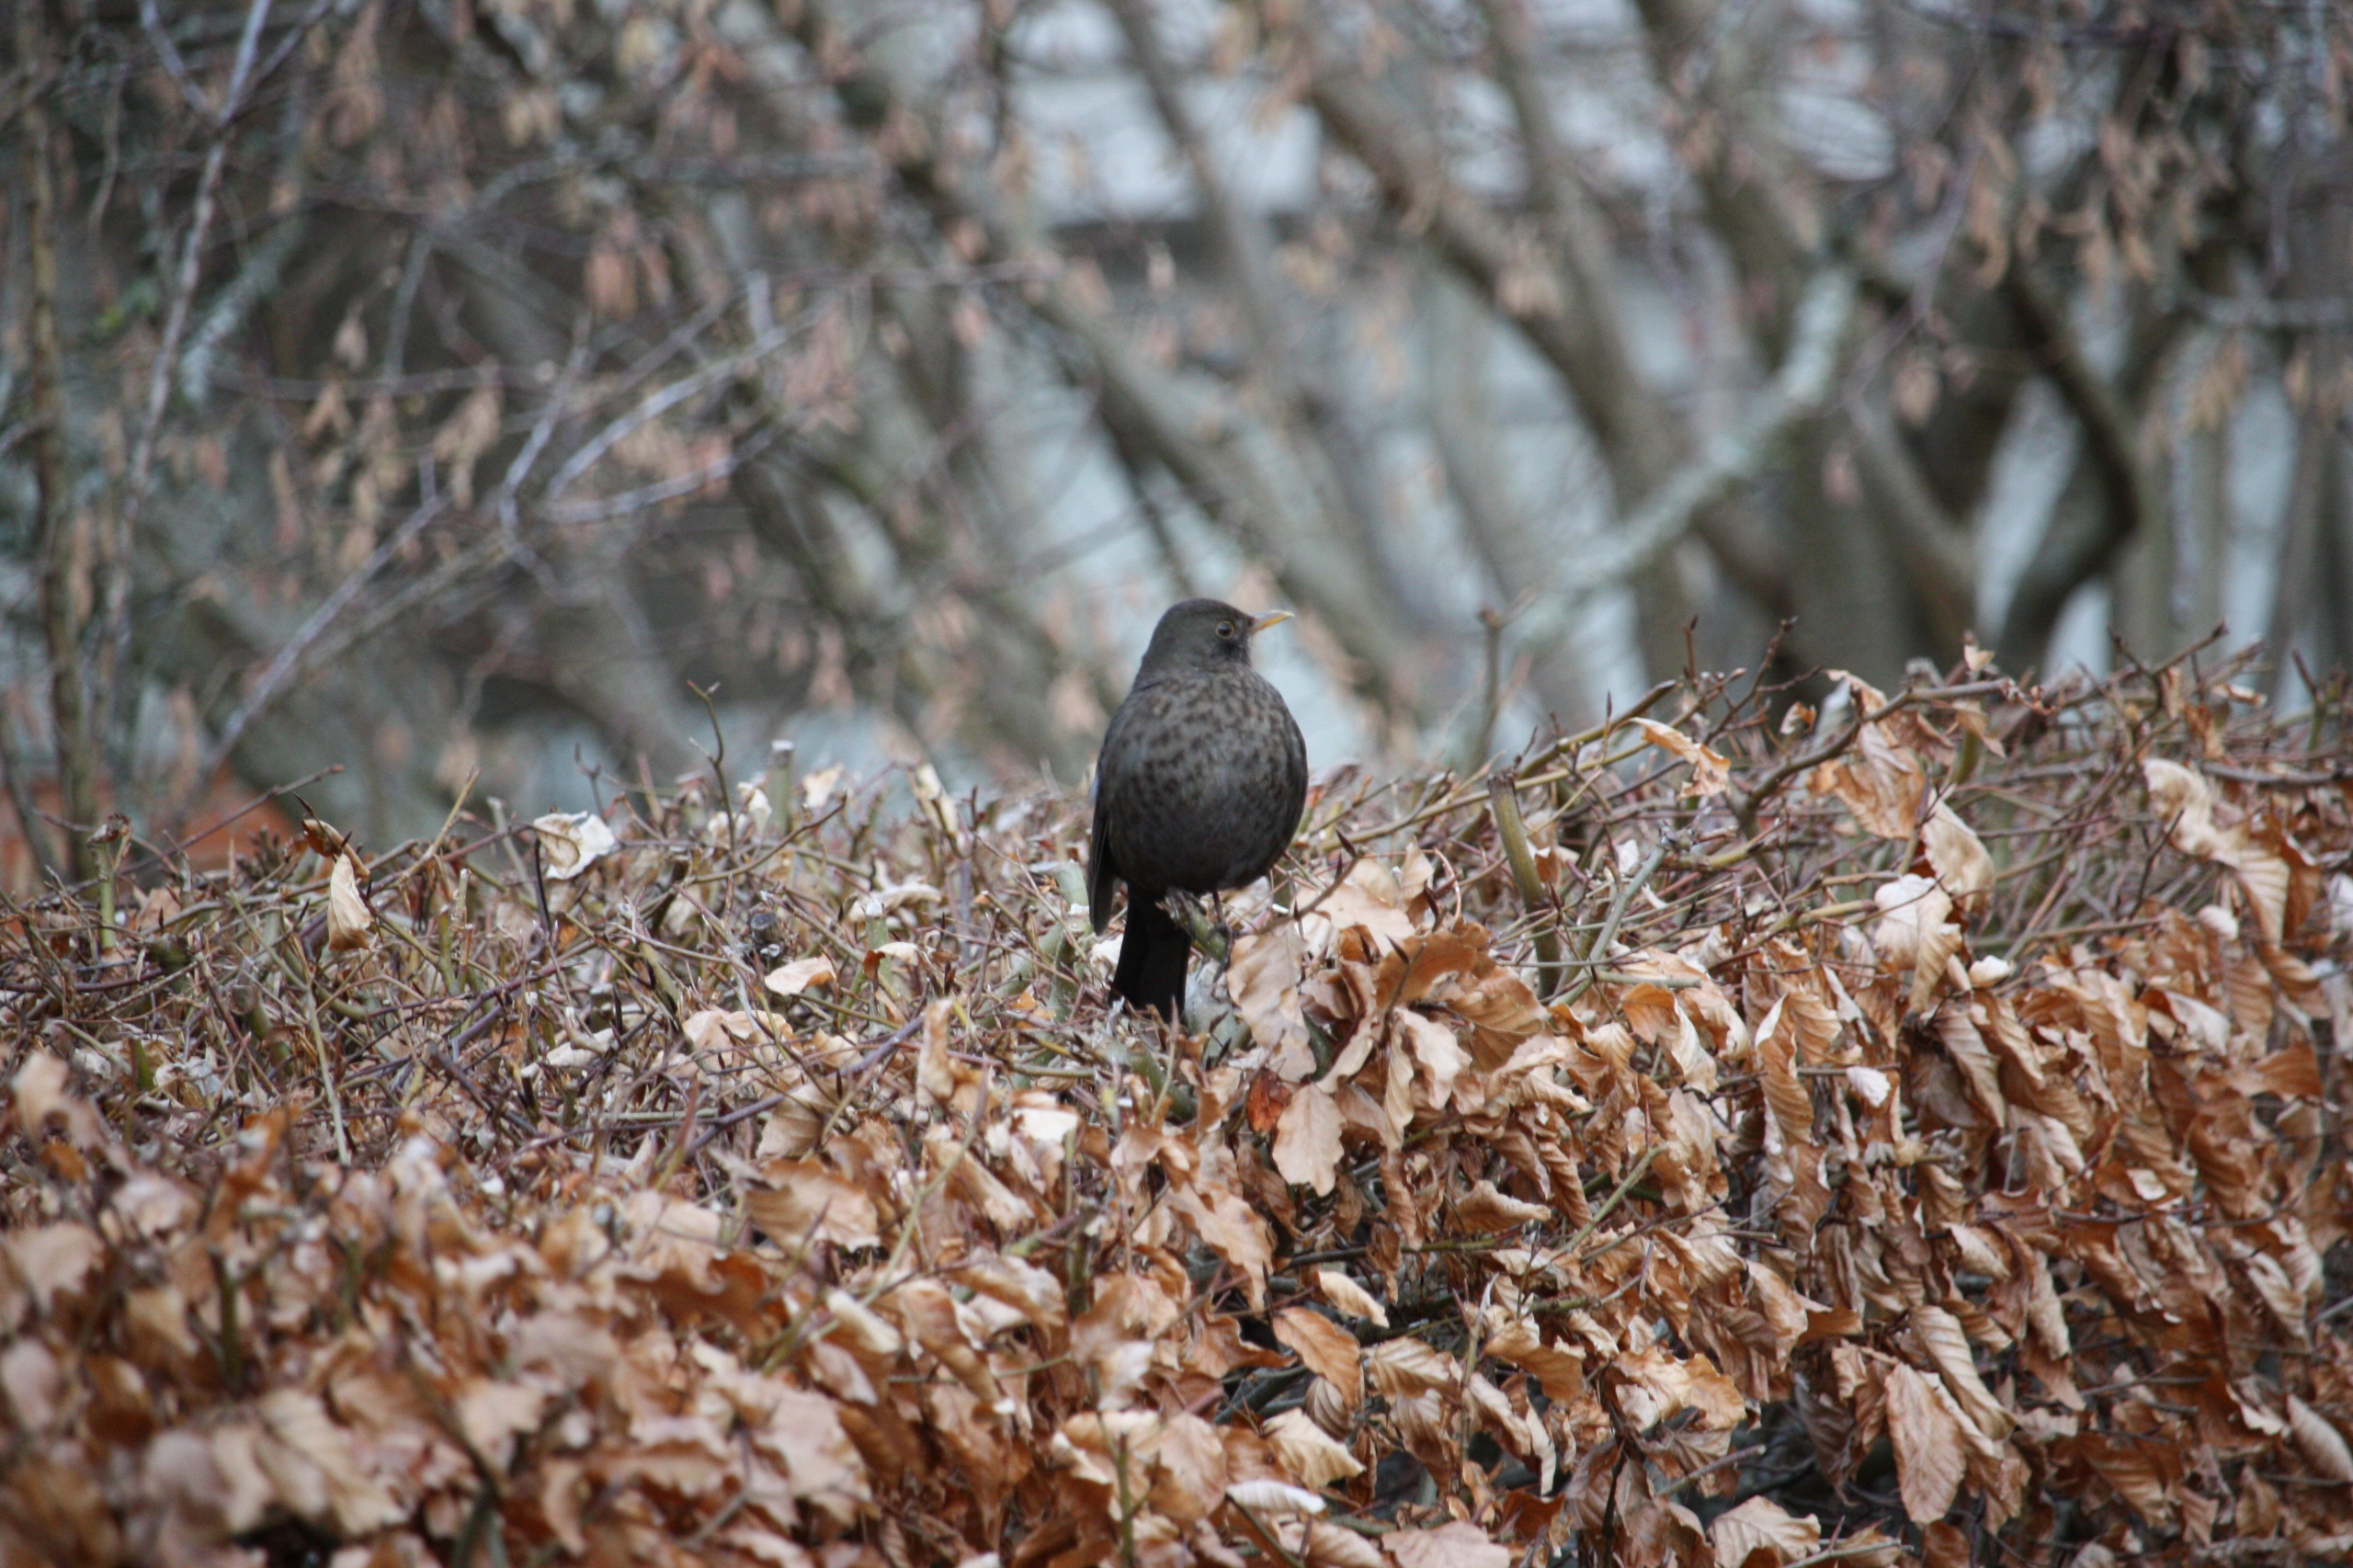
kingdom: Animalia
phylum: Chordata
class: Aves
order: Passeriformes
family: Turdidae
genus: Turdus
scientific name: Turdus merula
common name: Solsort
